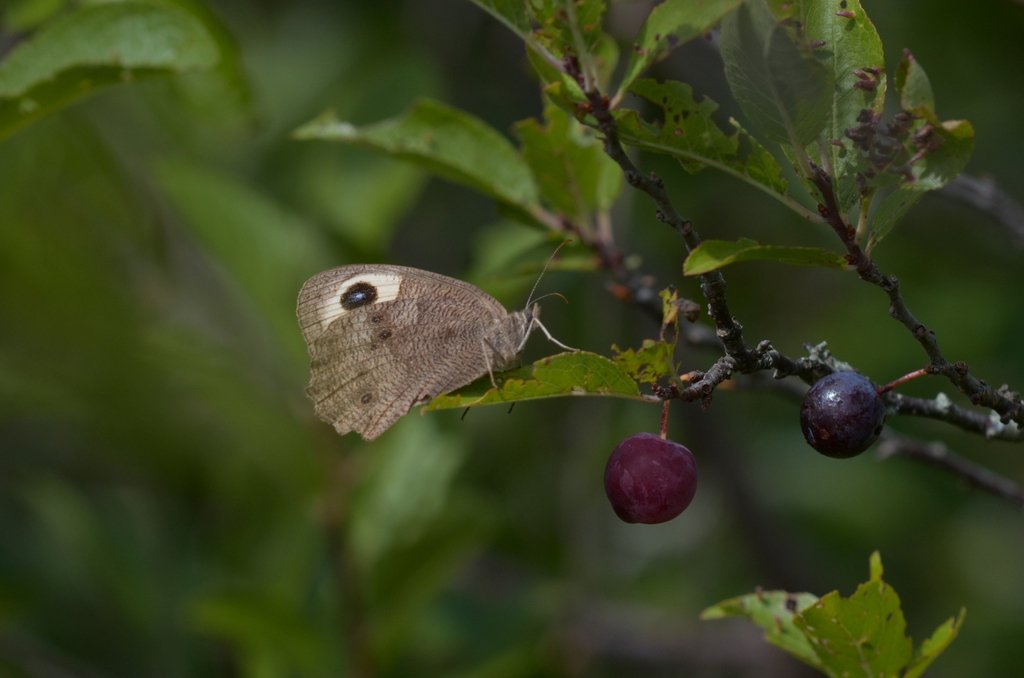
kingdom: Animalia
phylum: Arthropoda
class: Insecta
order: Lepidoptera
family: Nymphalidae
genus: Cercyonis
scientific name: Cercyonis pegala
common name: Common Wood-Nymph
